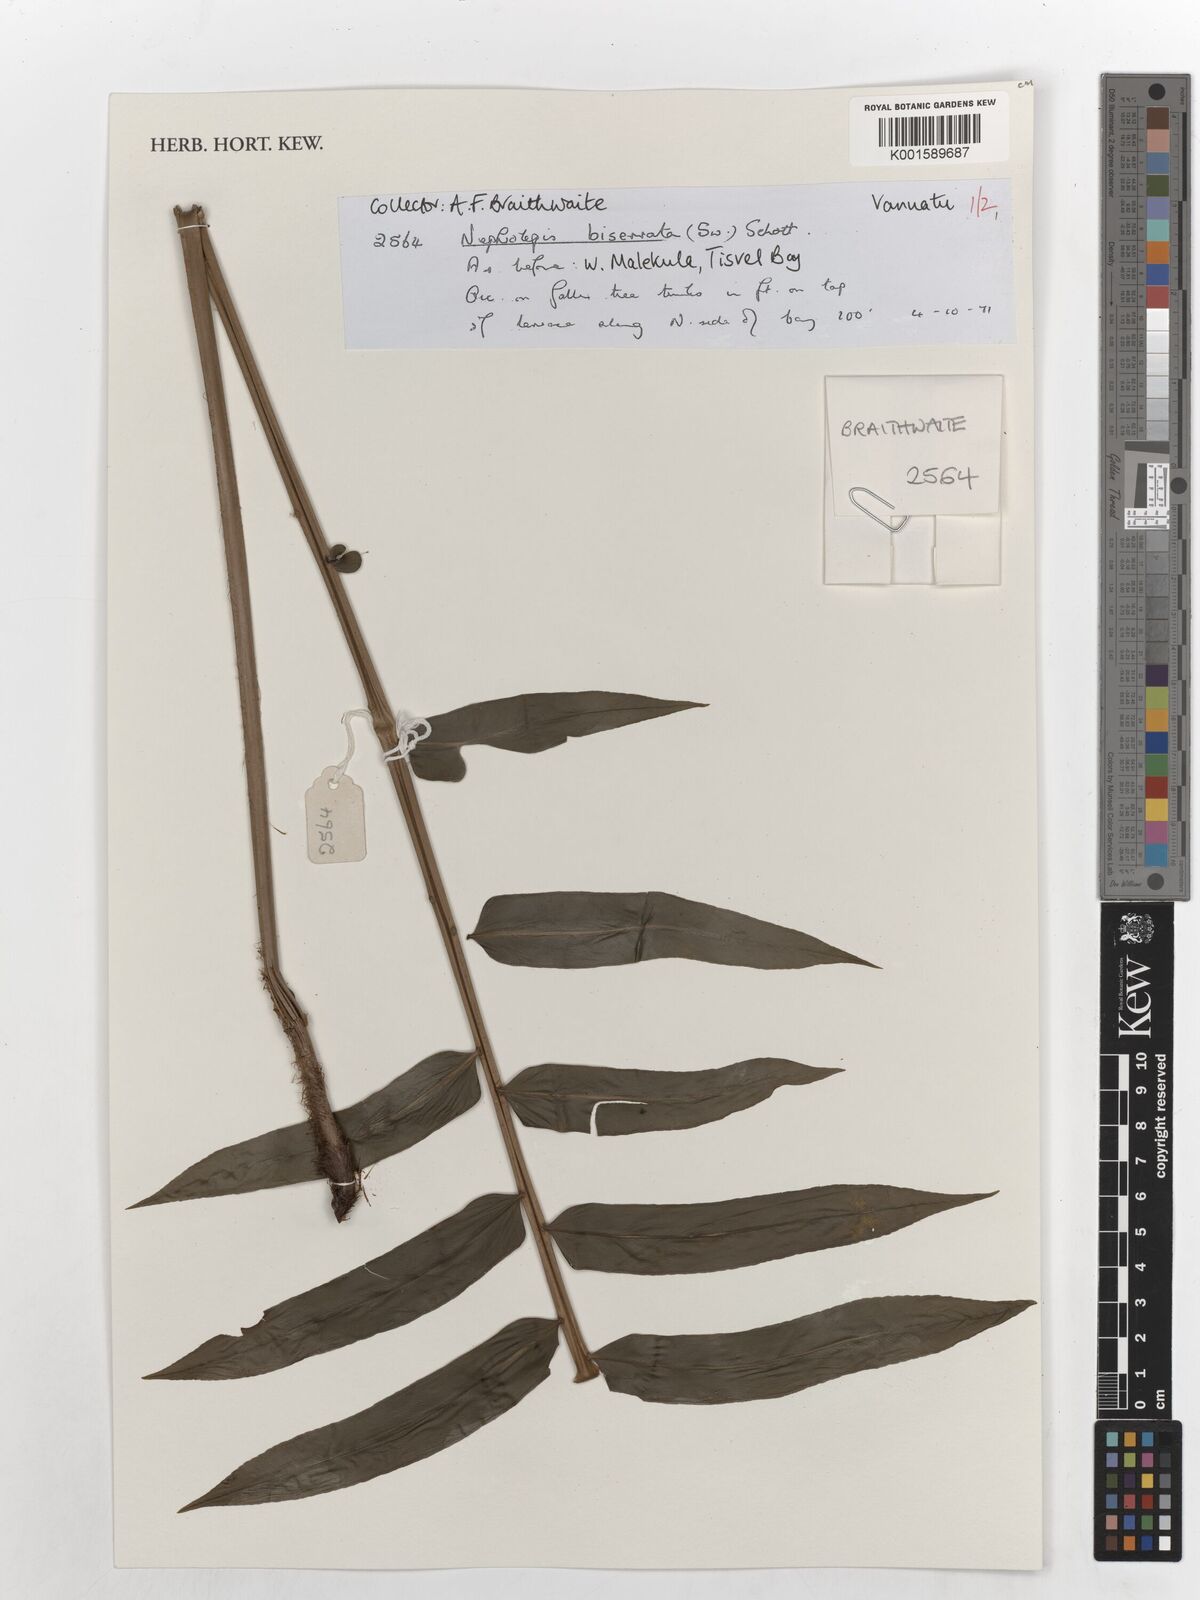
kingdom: Plantae
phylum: Tracheophyta
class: Polypodiopsida
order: Polypodiales
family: Nephrolepidaceae
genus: Nephrolepis
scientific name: Nephrolepis biserrata
